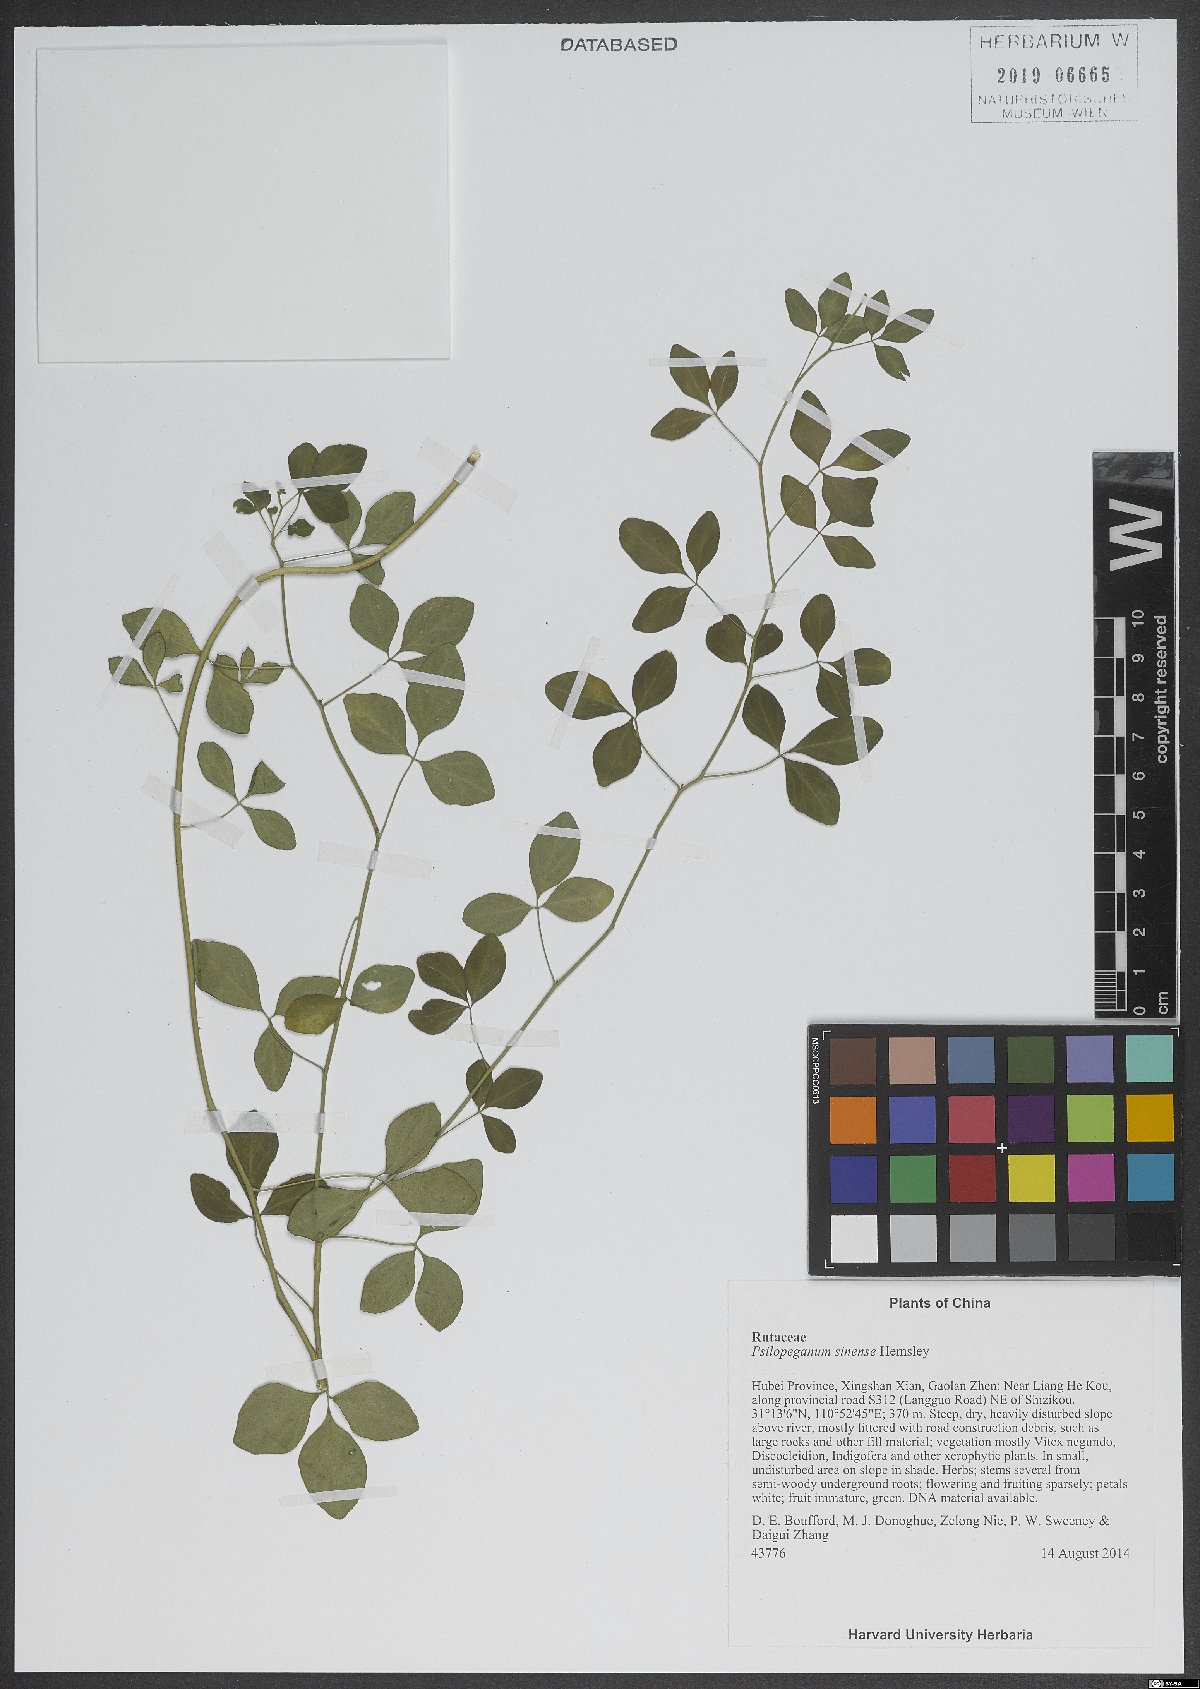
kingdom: Plantae
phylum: Tracheophyta
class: Magnoliopsida
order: Sapindales
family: Rutaceae
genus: Psilopeganum
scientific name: Psilopeganum sinense
